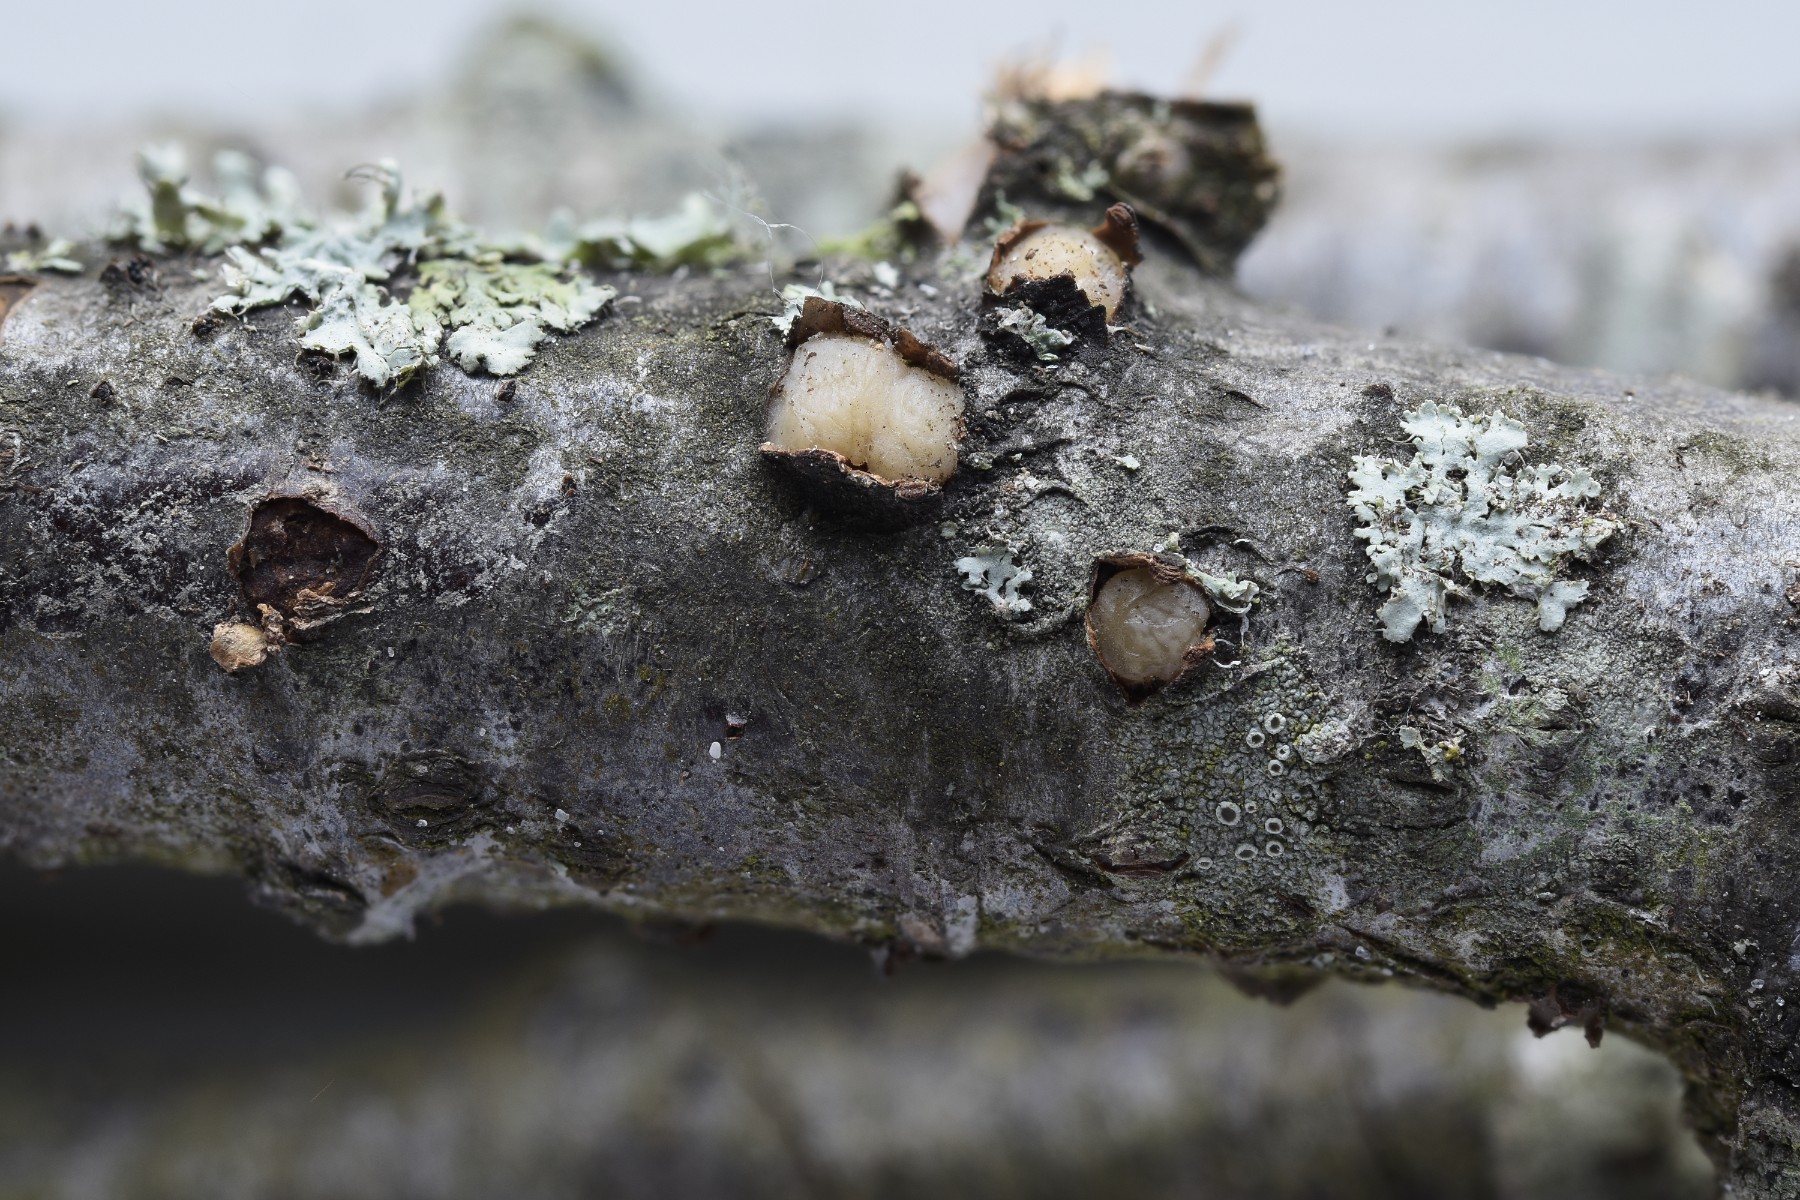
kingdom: Fungi
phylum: Basidiomycota
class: Pucciniomycetes
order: Platygloeales
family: Platygloeaceae
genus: Platygloea
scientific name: Platygloea disciformis
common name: linde-slimklat
